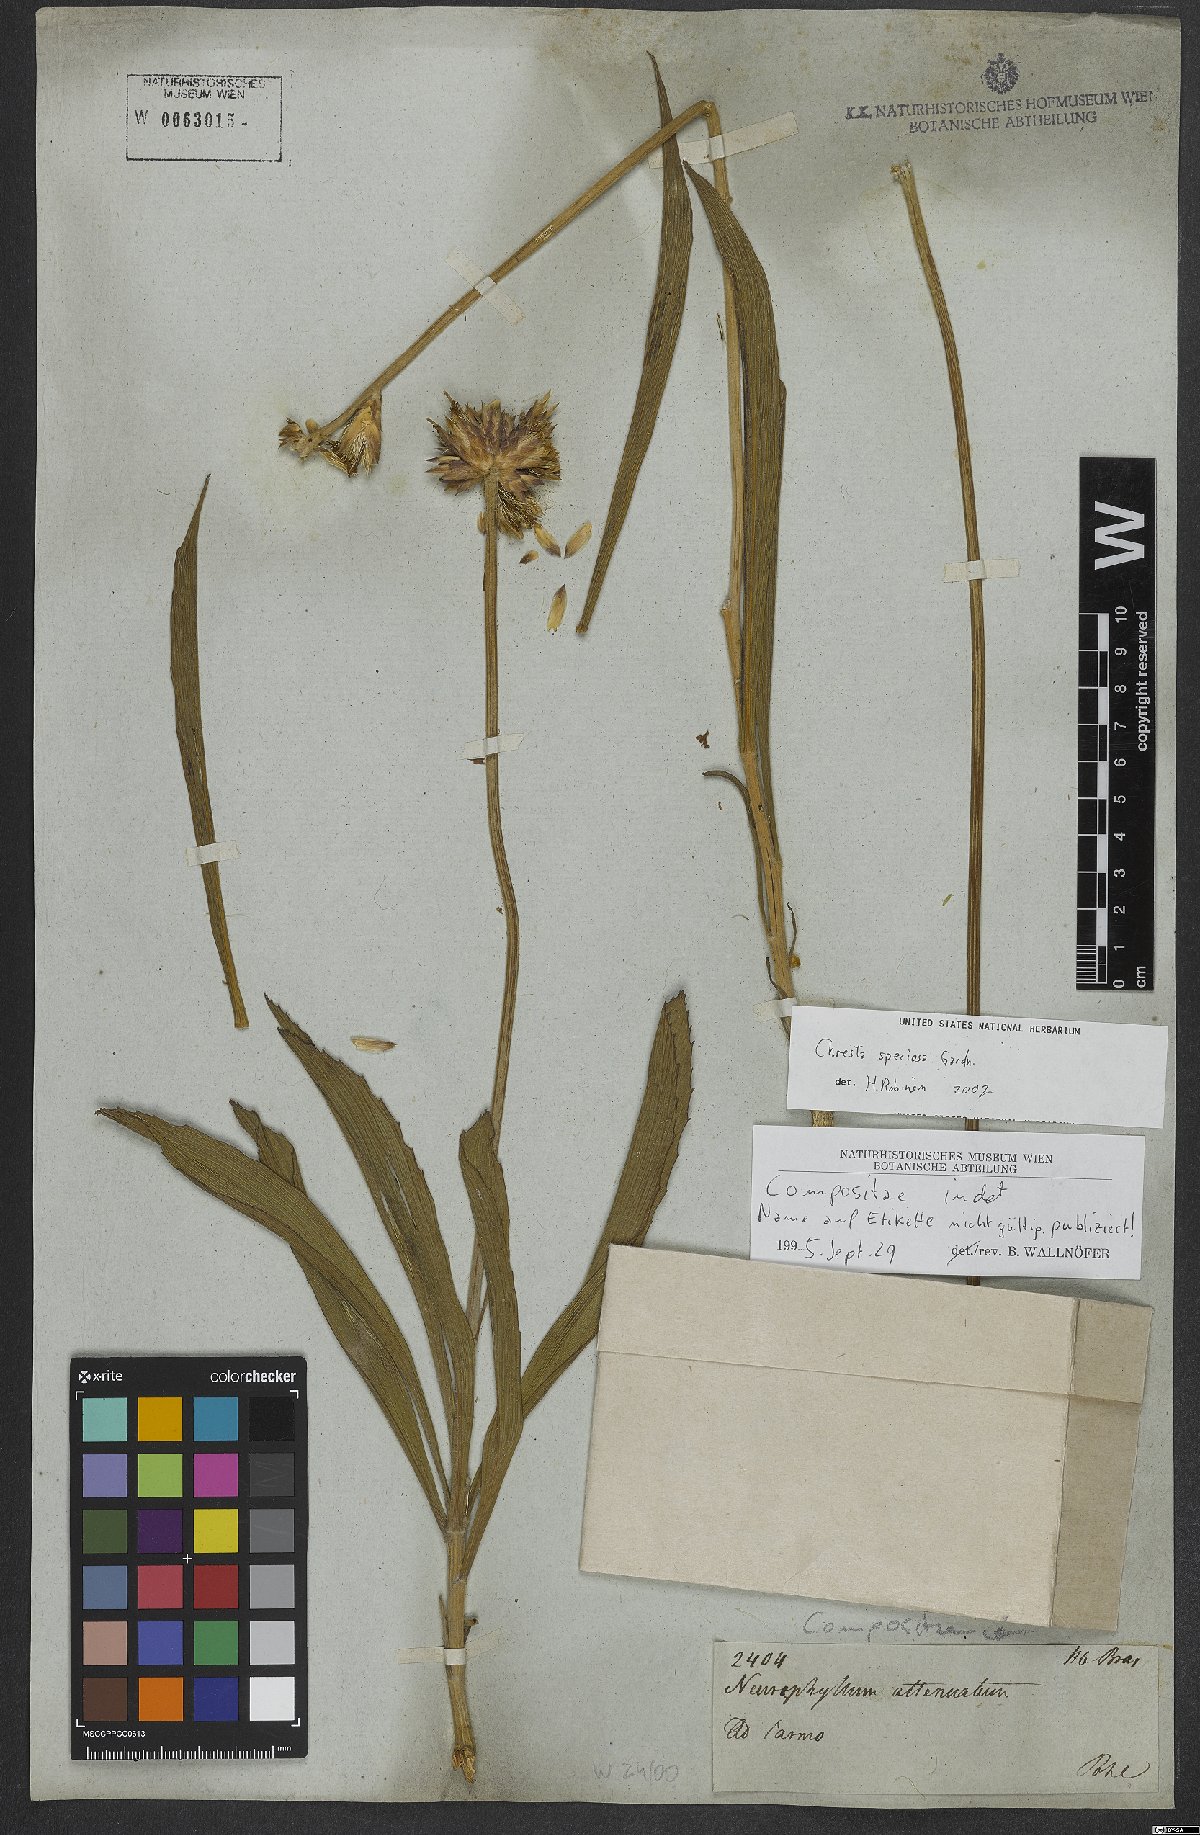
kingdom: Plantae
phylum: Tracheophyta
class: Magnoliopsida
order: Asterales
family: Asteraceae
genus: Chresta
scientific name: Chresta speciosa
